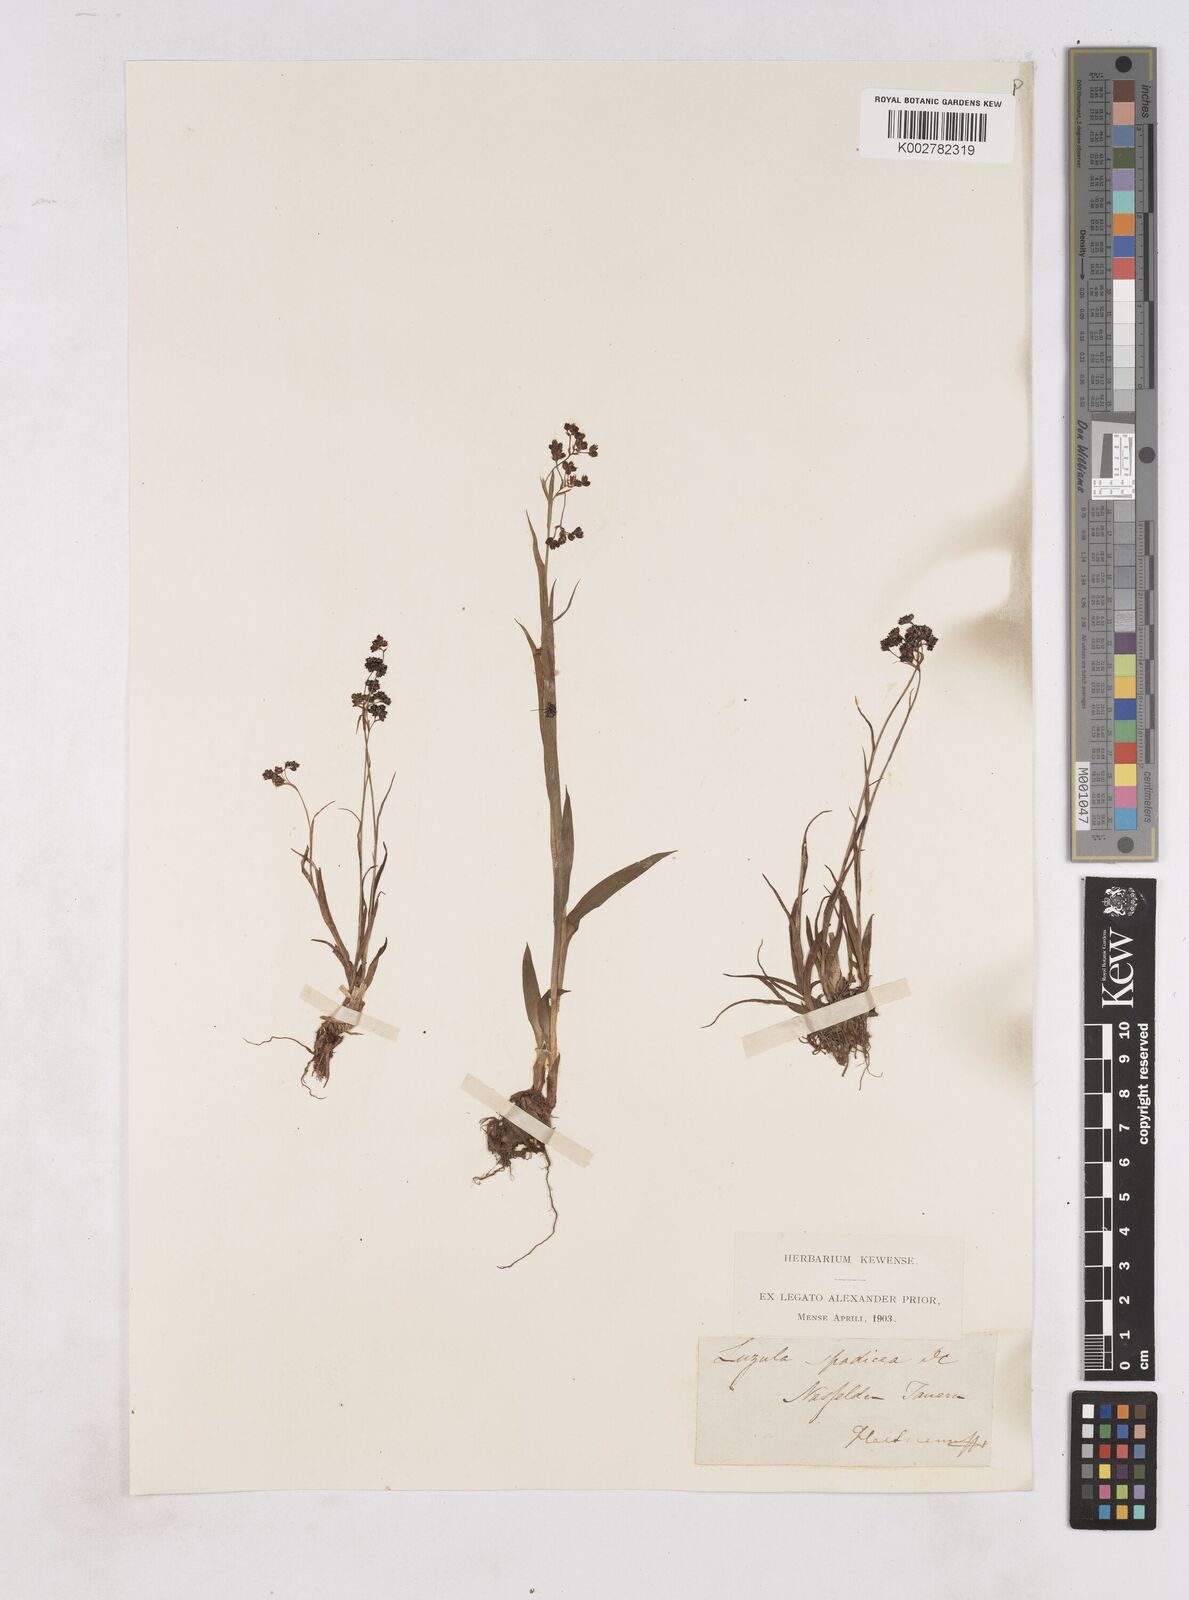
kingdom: Plantae
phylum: Tracheophyta
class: Liliopsida
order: Poales
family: Juncaceae
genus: Luzula
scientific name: Luzula alpinopilosa
